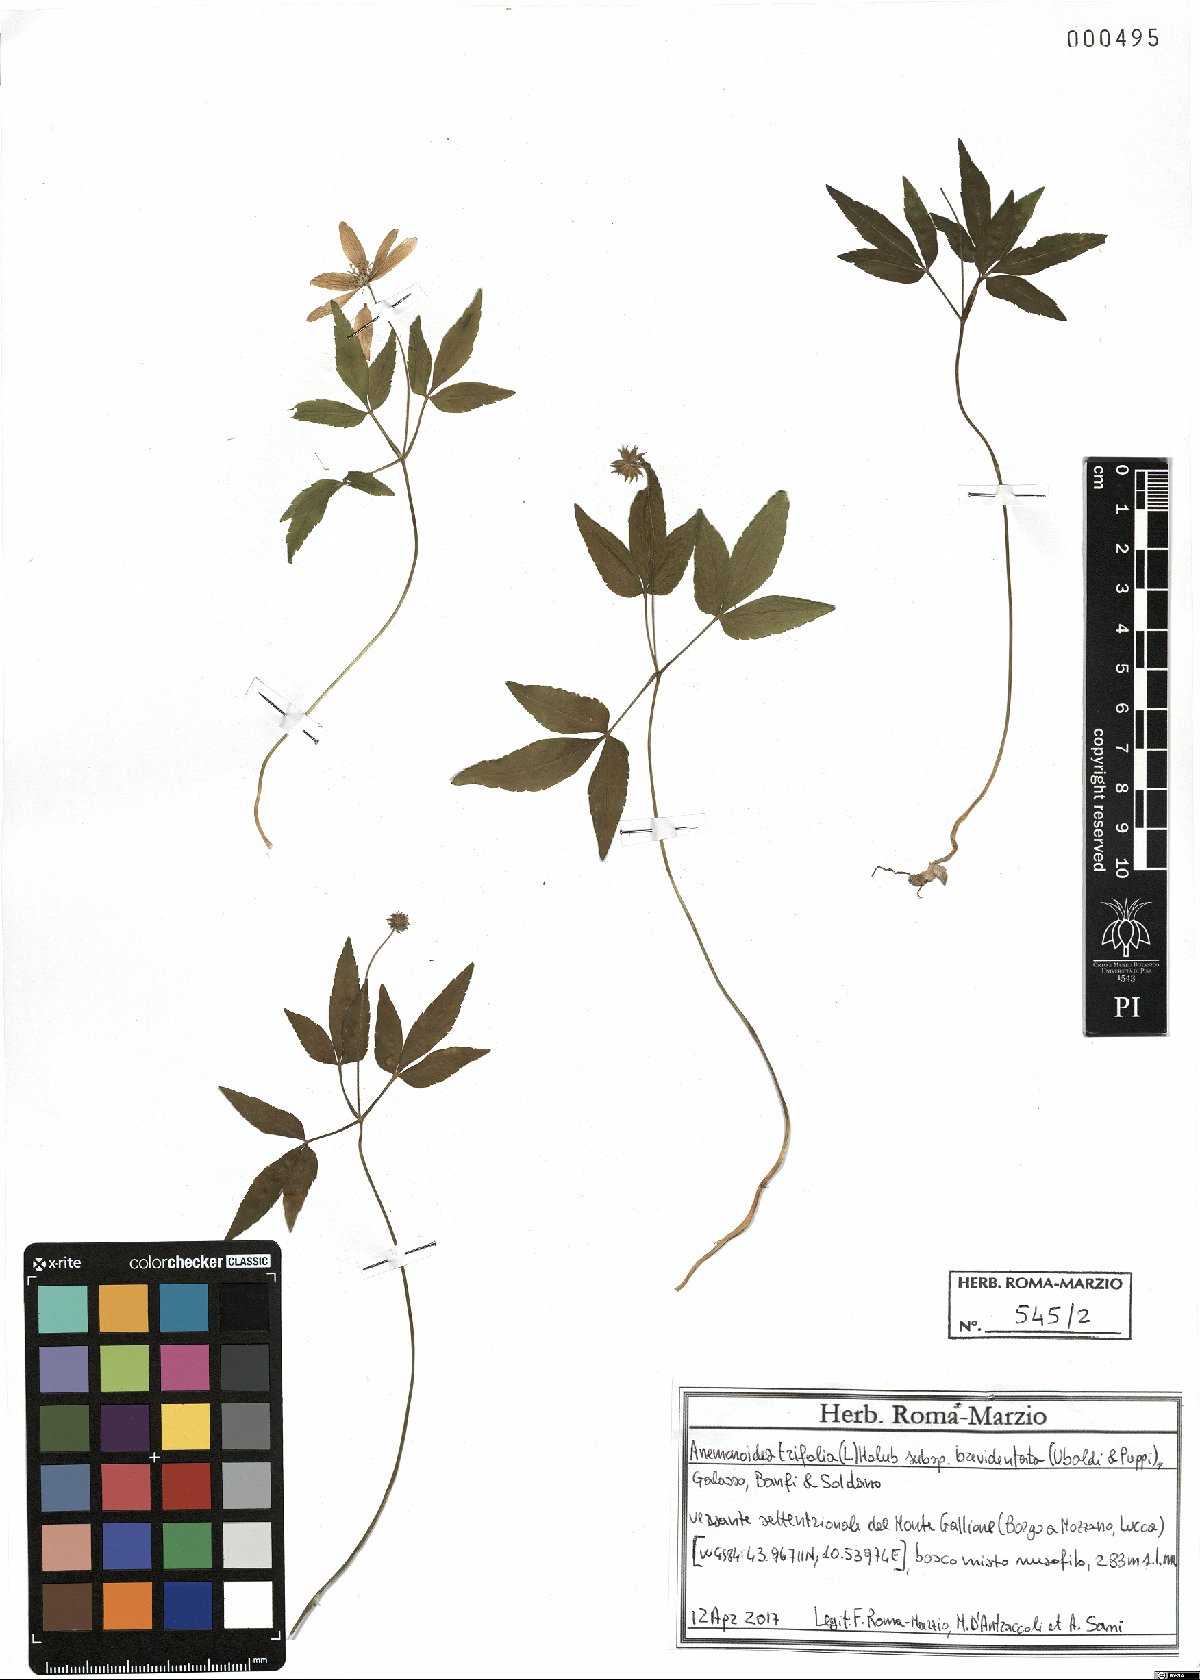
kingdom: Plantae
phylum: Tracheophyta
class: Magnoliopsida
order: Ranunculales
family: Ranunculaceae
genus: Anemone
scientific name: Anemone trifolia
